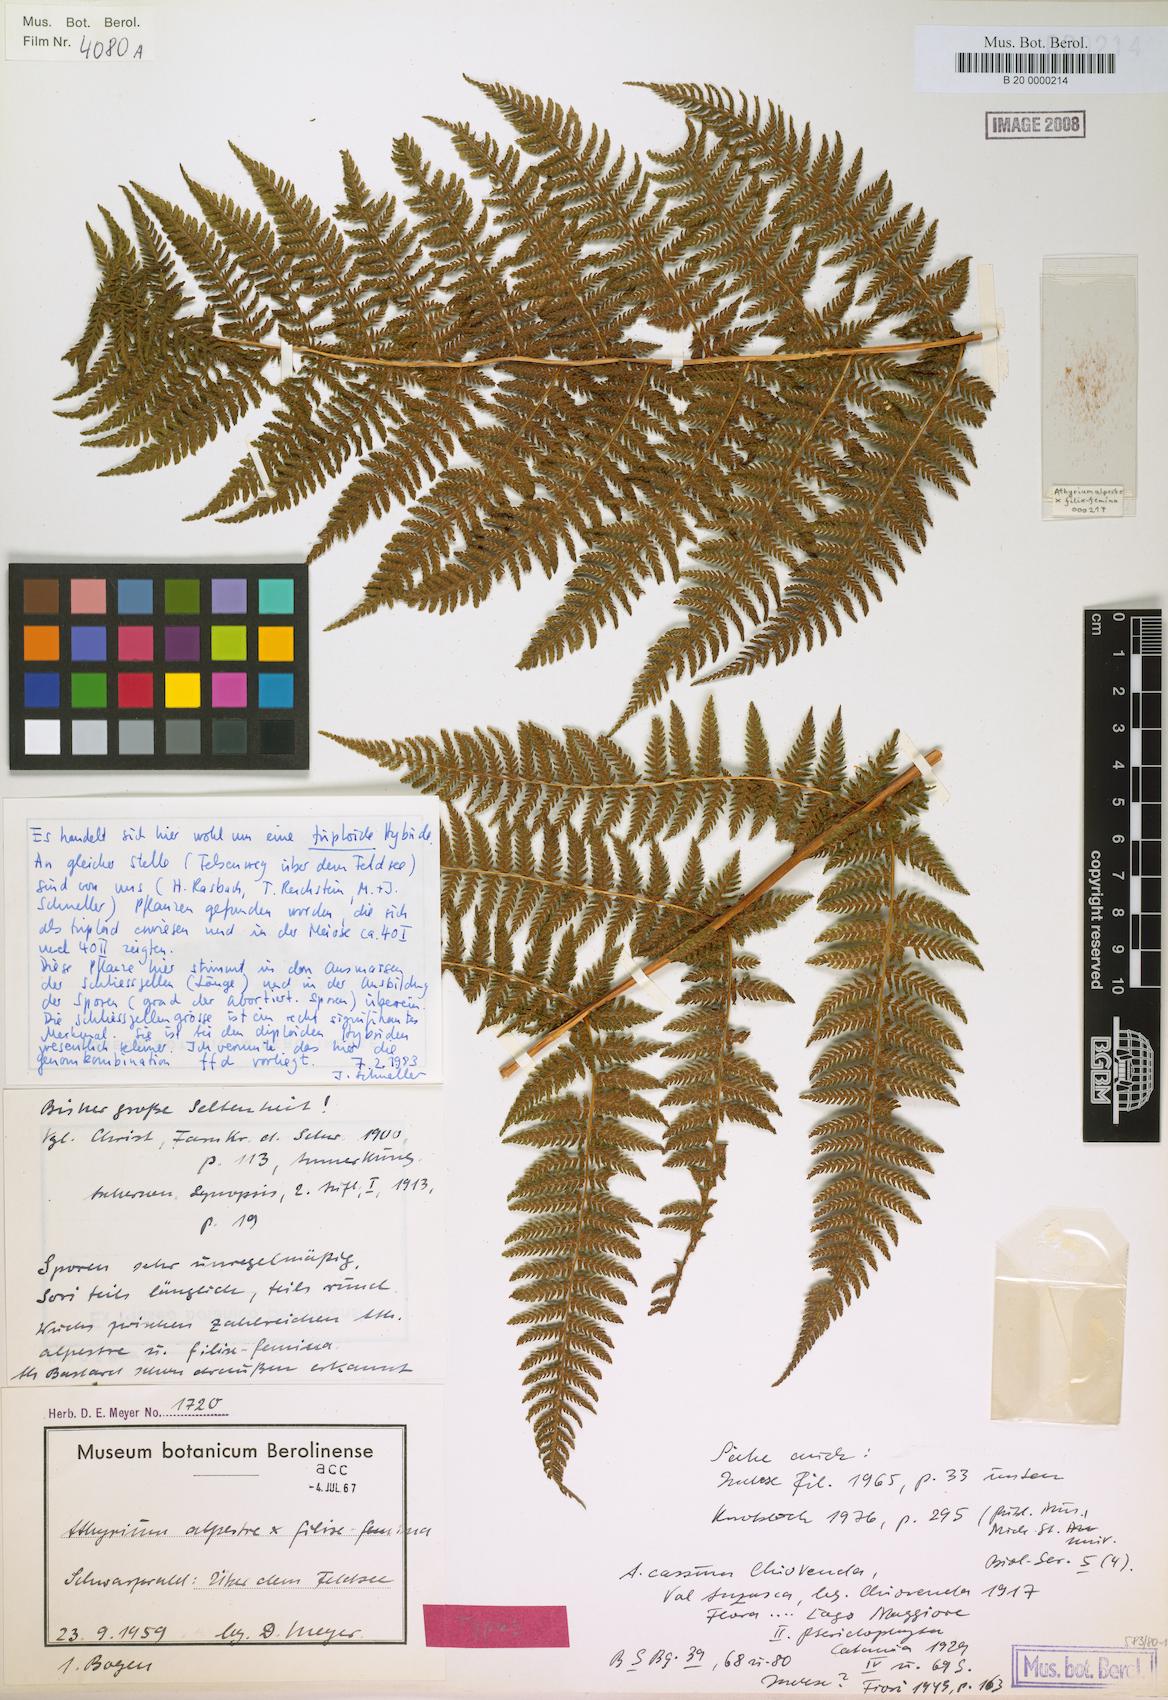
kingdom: Plantae
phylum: Tracheophyta
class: Polypodiopsida
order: Polypodiales
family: Athyriaceae
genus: Pseudathyrium
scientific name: Pseudathyrium alpestre
